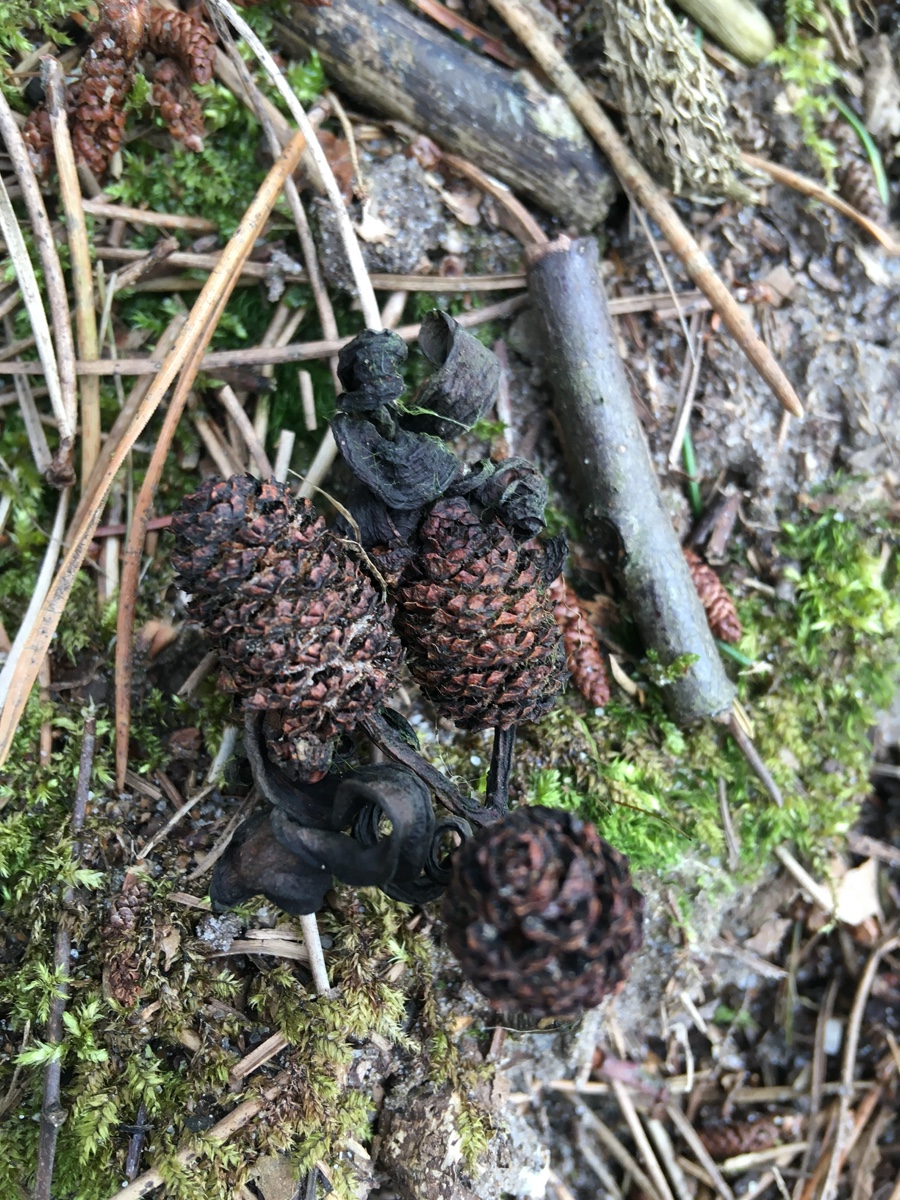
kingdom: Fungi
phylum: Ascomycota
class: Taphrinomycetes
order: Taphrinales
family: Taphrinaceae
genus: Taphrina
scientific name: Taphrina alni
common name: Alder tongue
